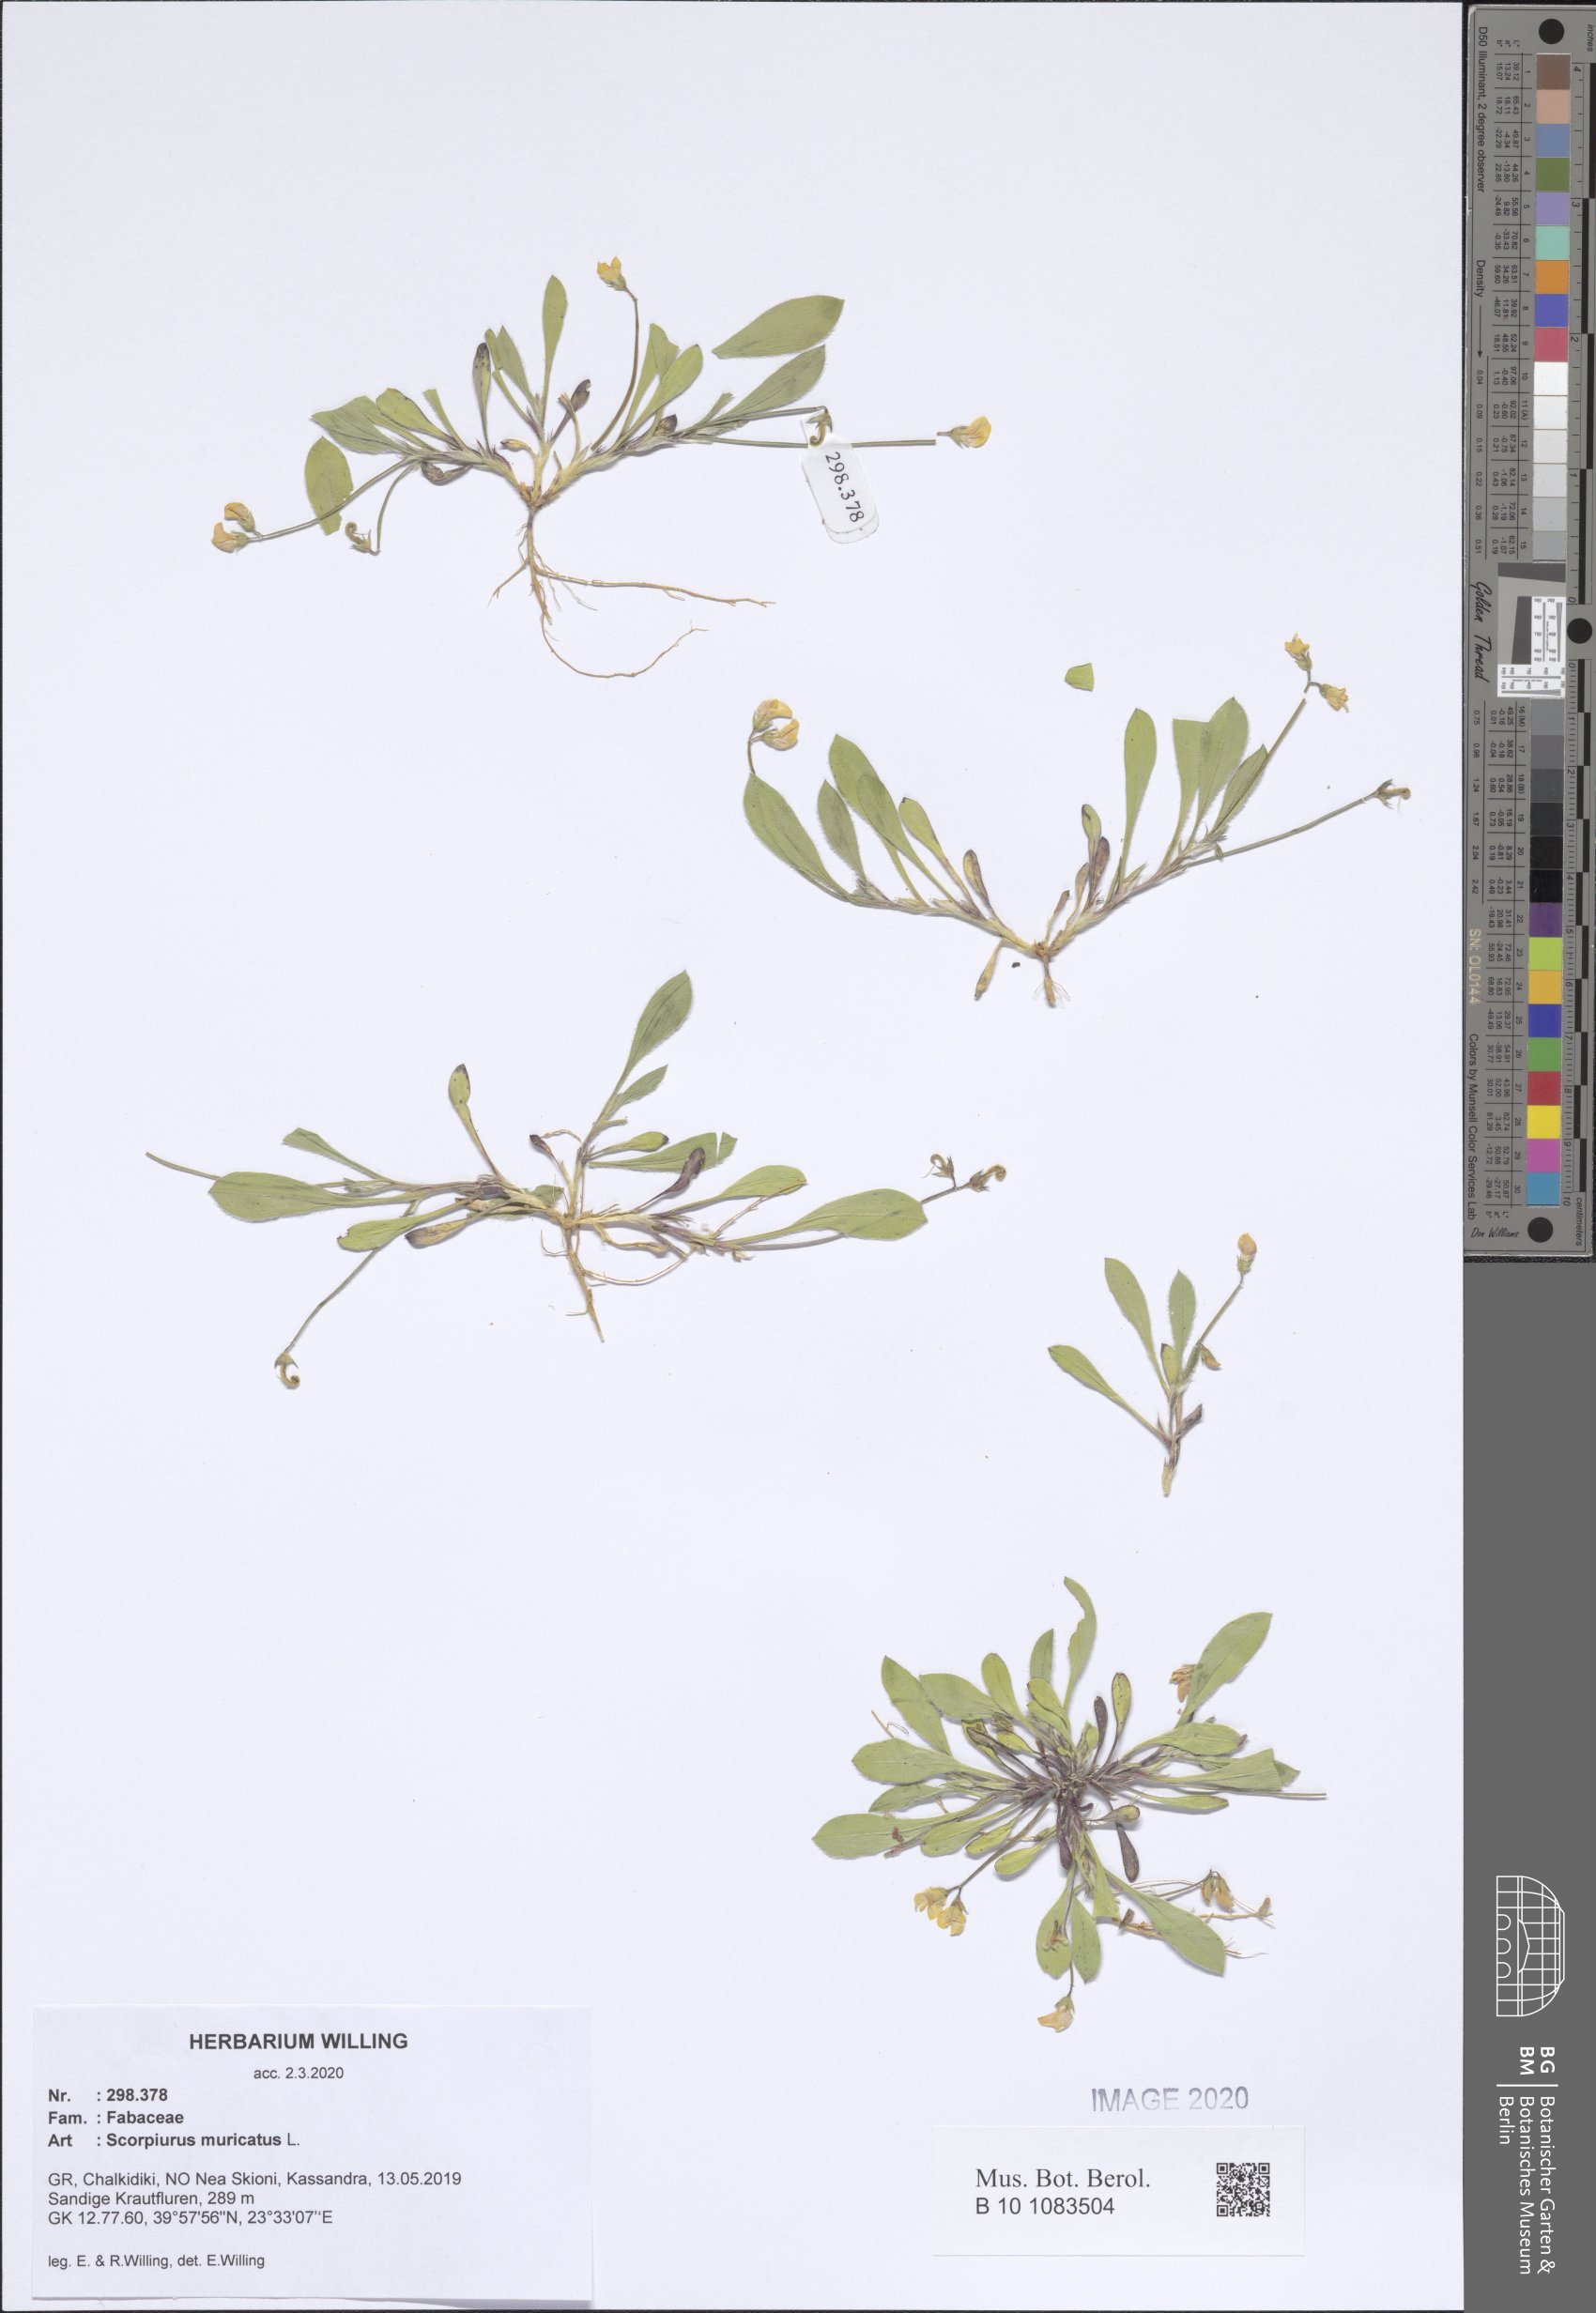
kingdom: Plantae
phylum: Tracheophyta
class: Magnoliopsida
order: Fabales
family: Fabaceae
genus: Scorpiurus
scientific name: Scorpiurus muricatus
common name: Caterpillar-plant
